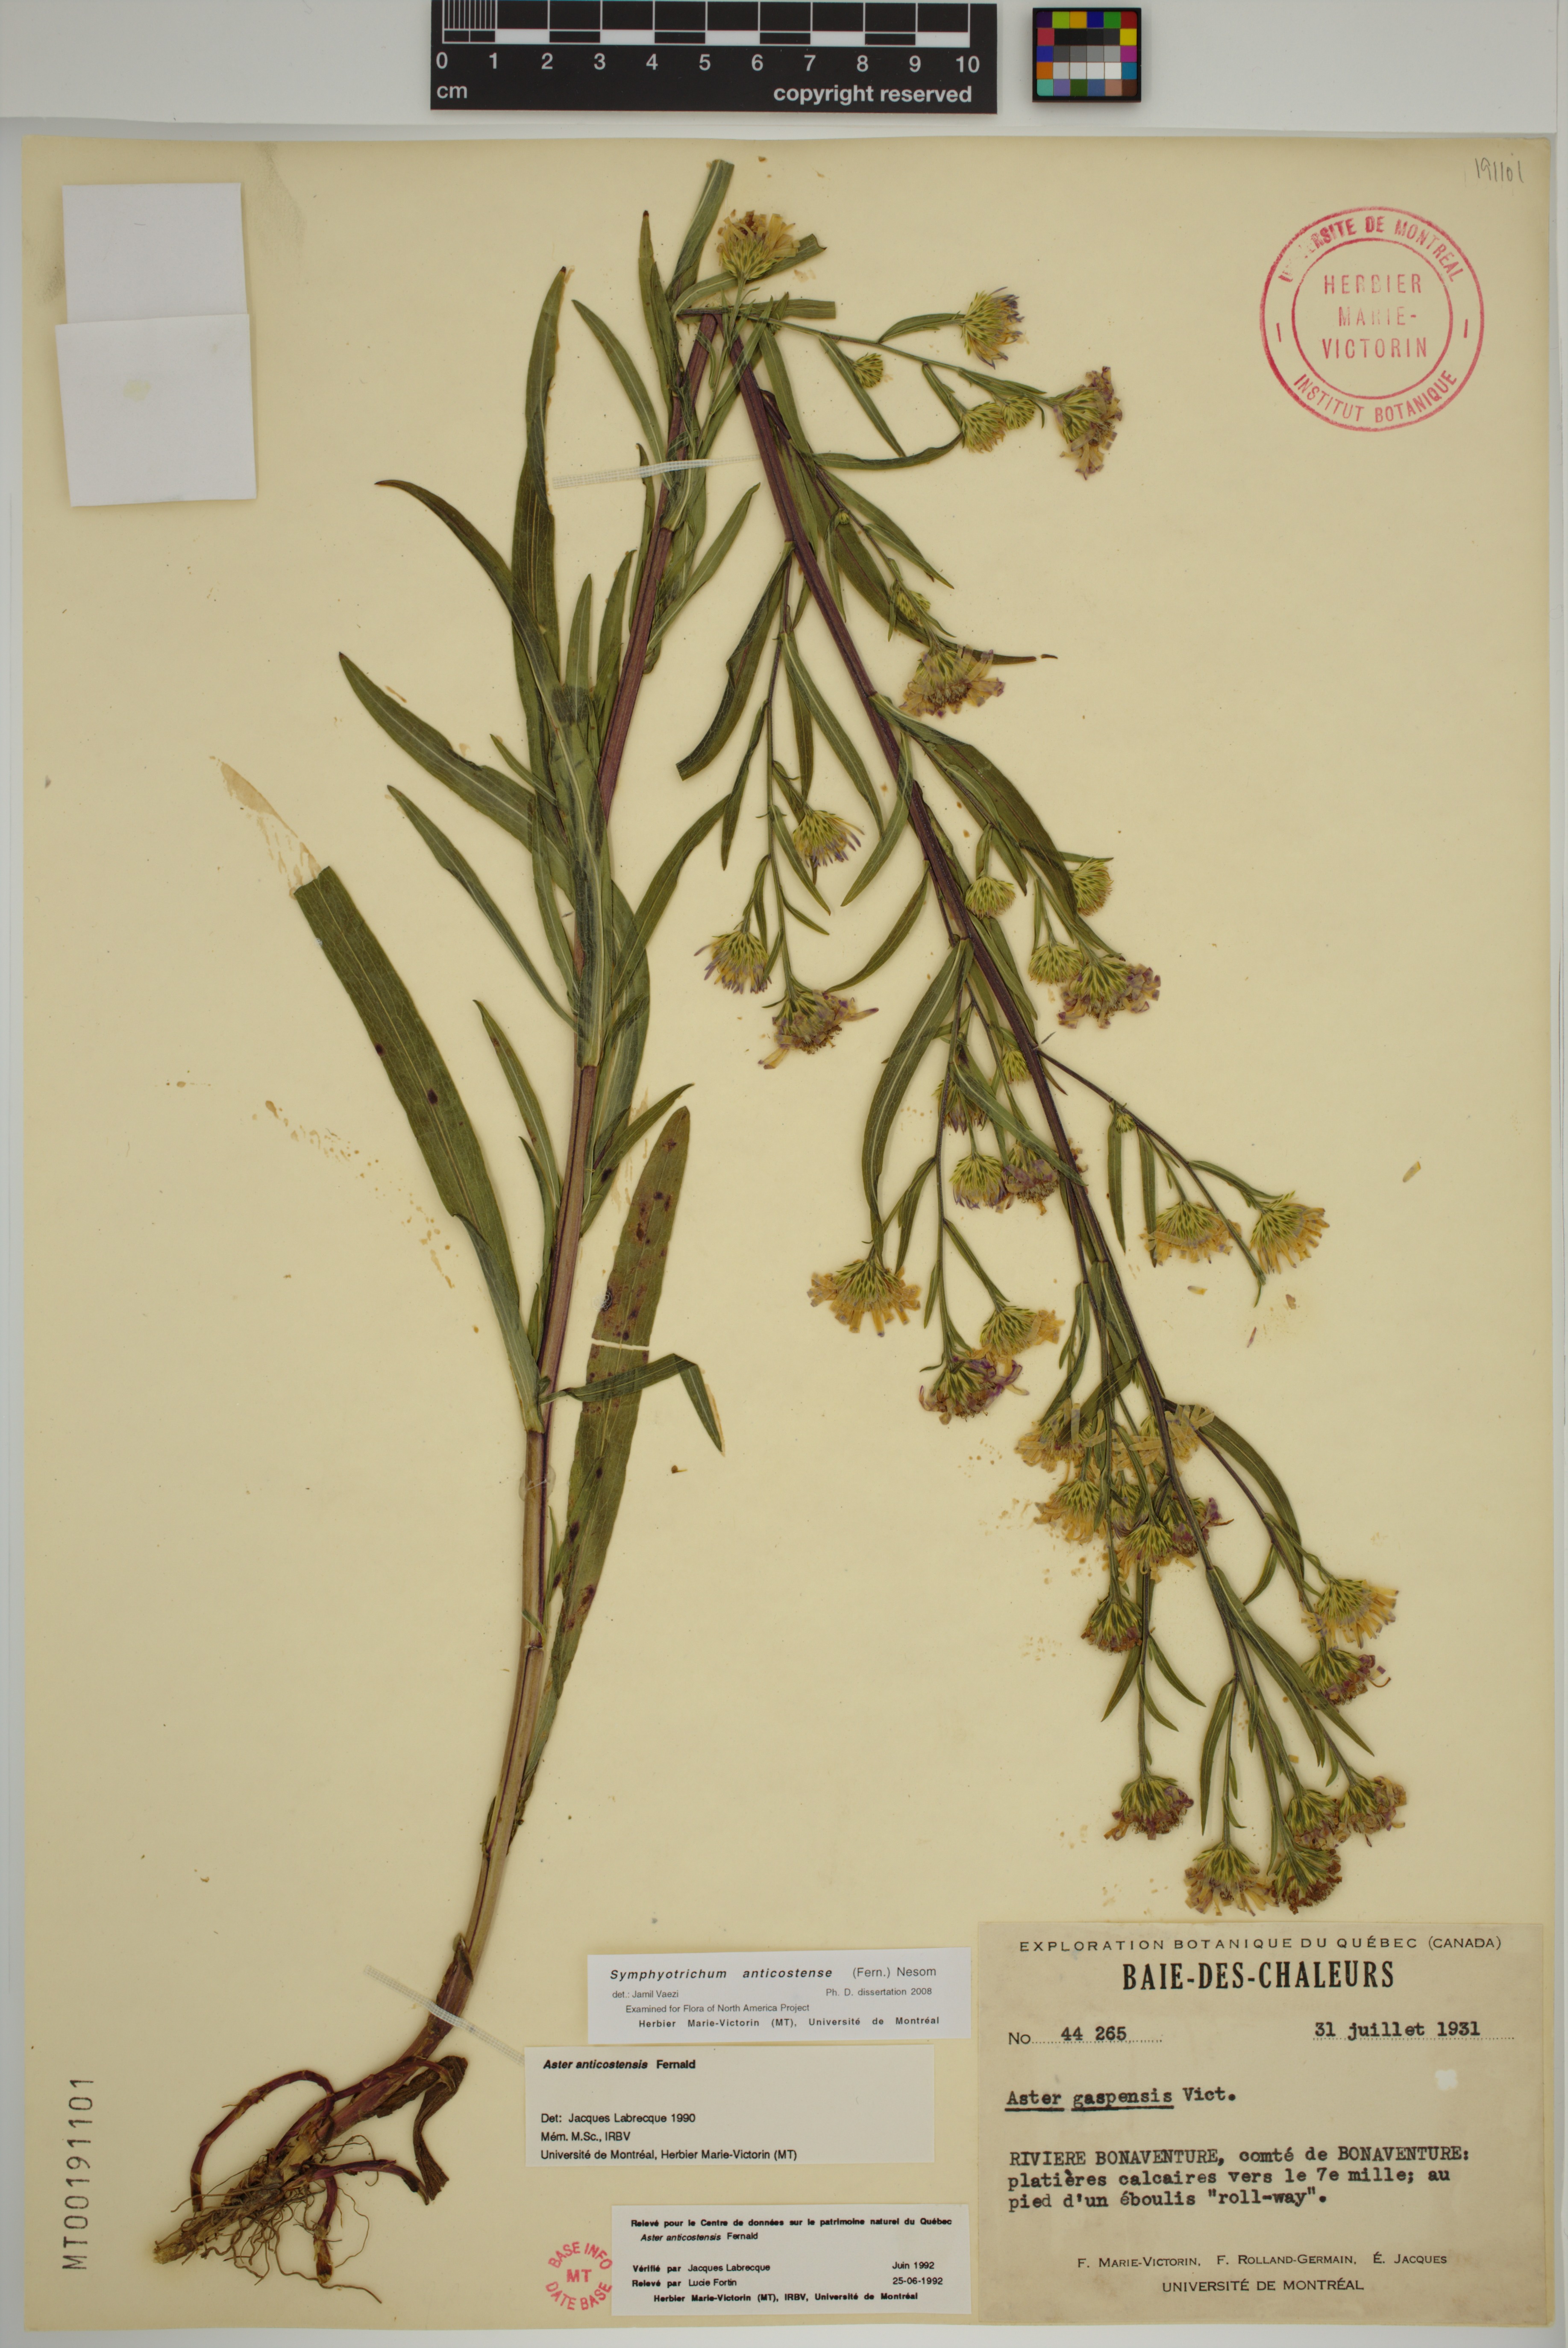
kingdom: Plantae
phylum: Tracheophyta
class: Magnoliopsida
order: Asterales
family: Asteraceae
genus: Symphyotrichum
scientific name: Symphyotrichum anticostense
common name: Anticosti island aster
